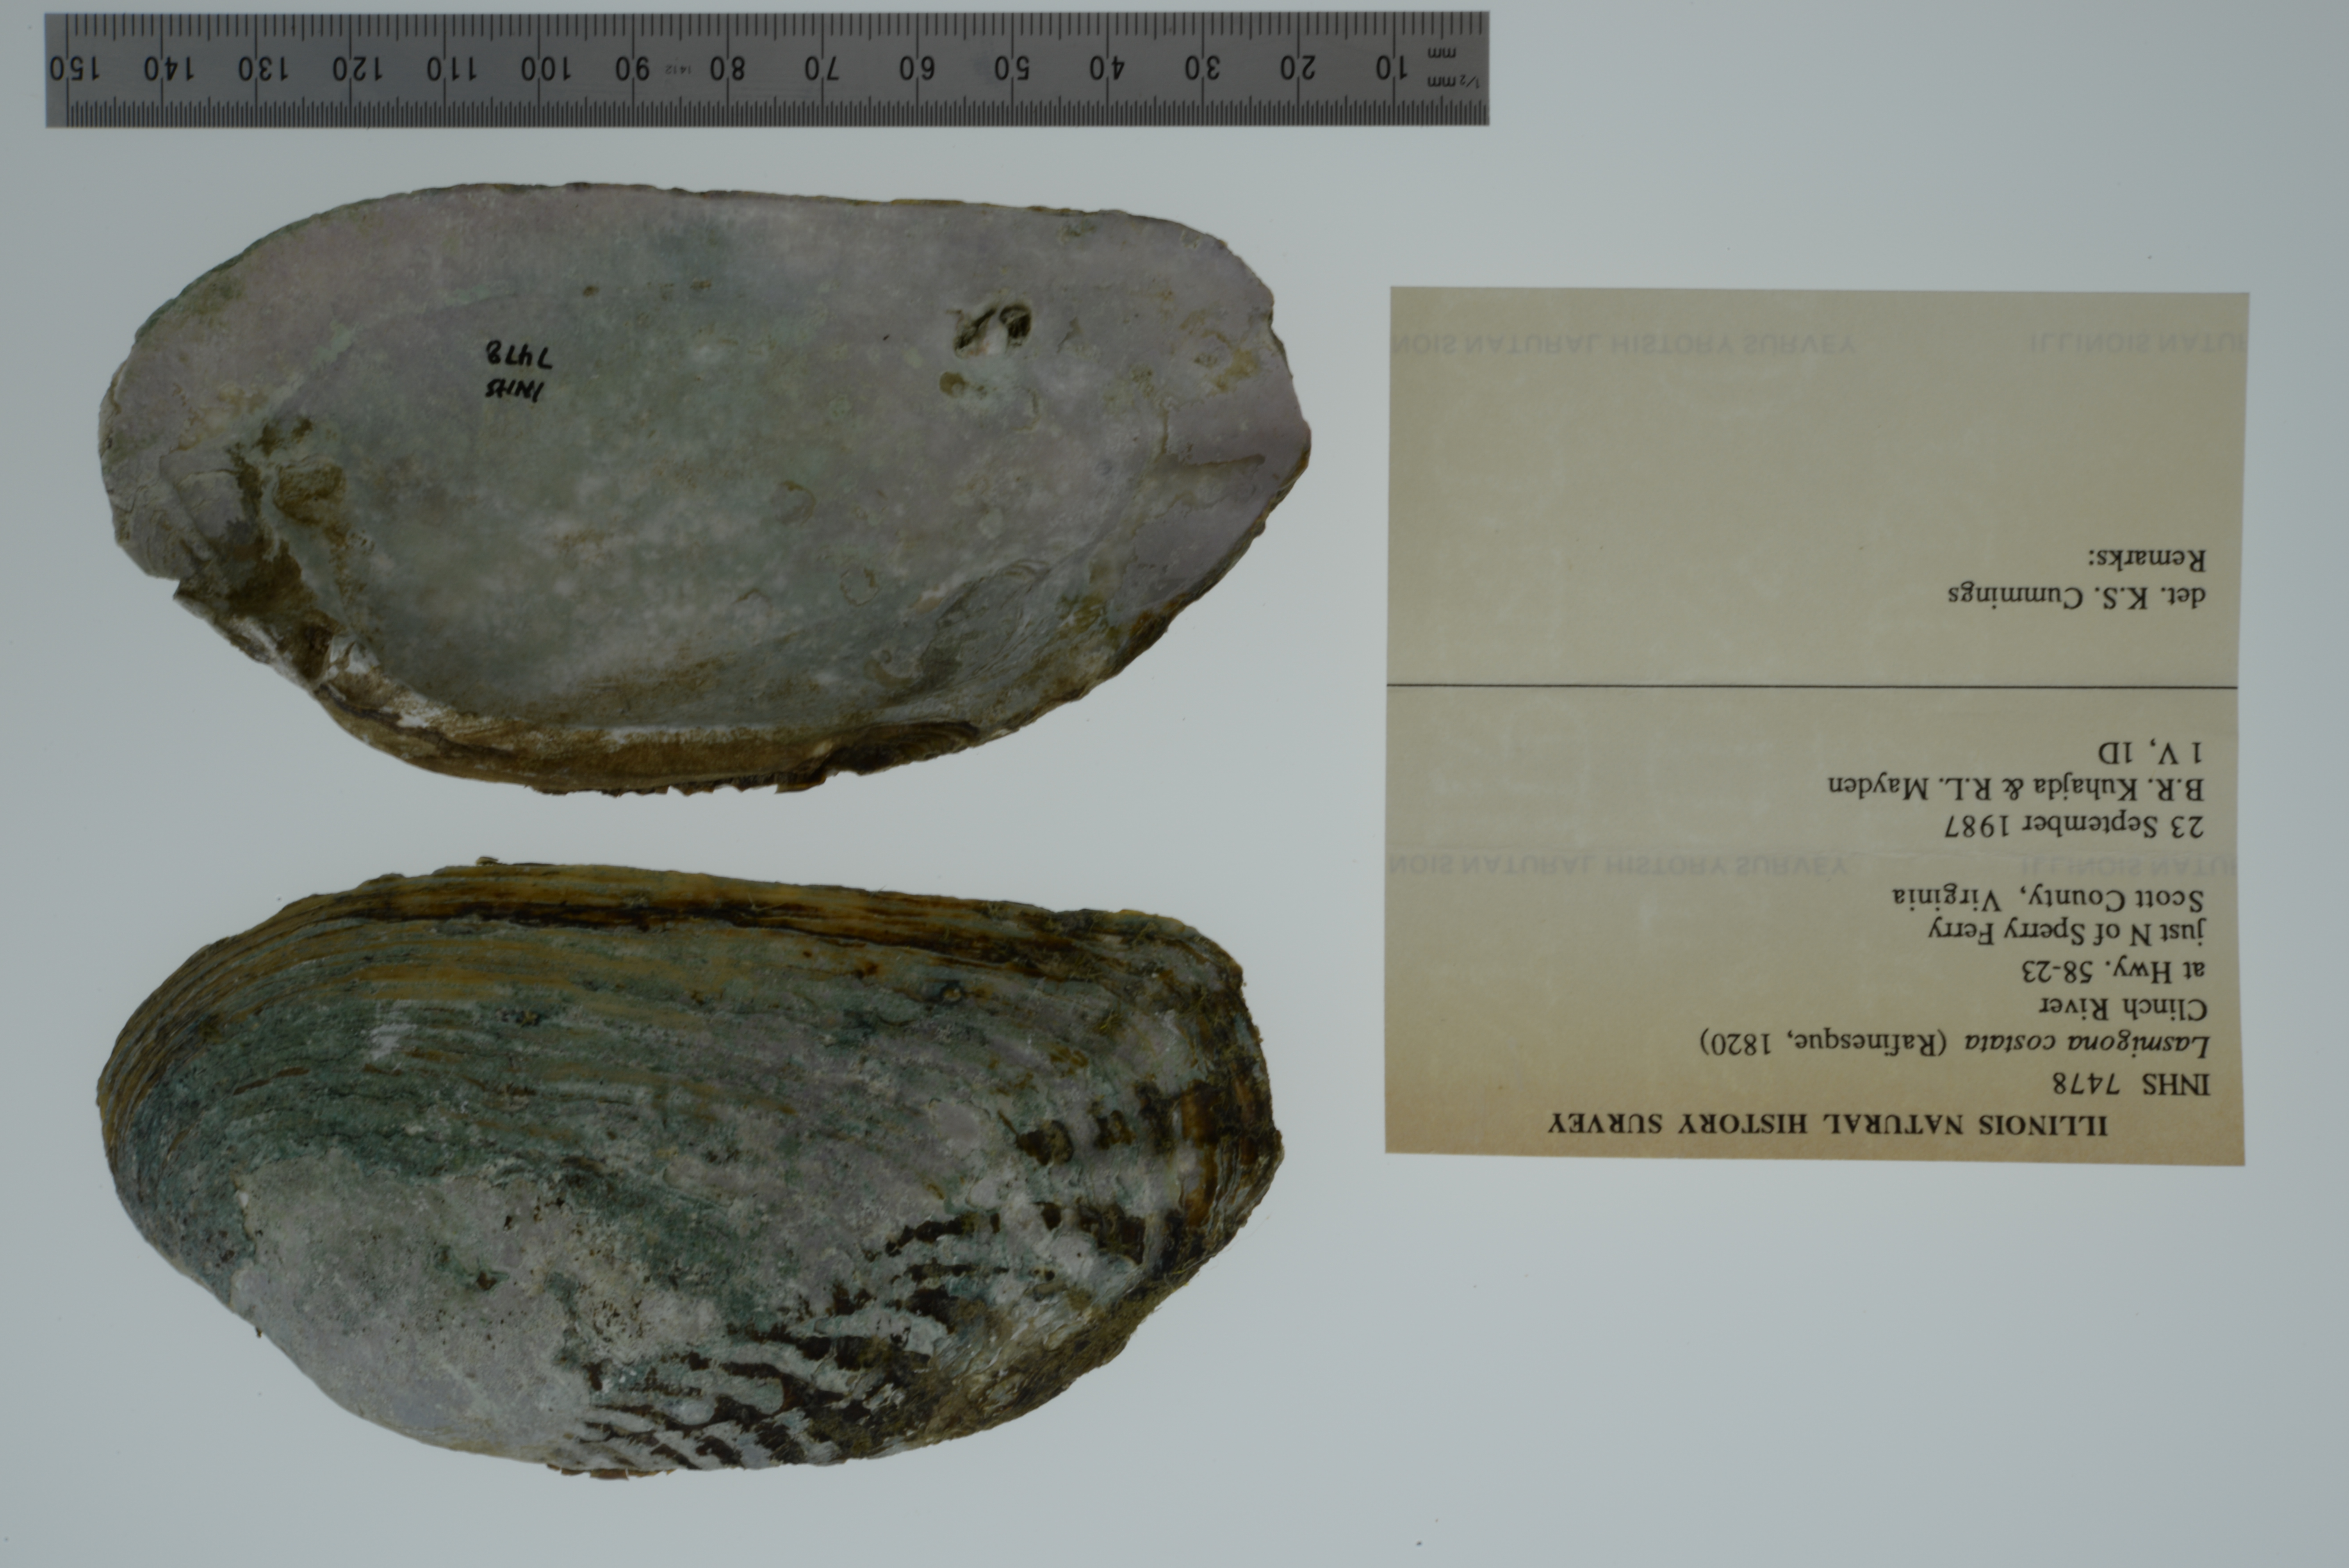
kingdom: Animalia
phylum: Mollusca
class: Bivalvia
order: Unionida
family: Unionidae
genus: Lasmigona
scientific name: Lasmigona costata
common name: Flutedshell
